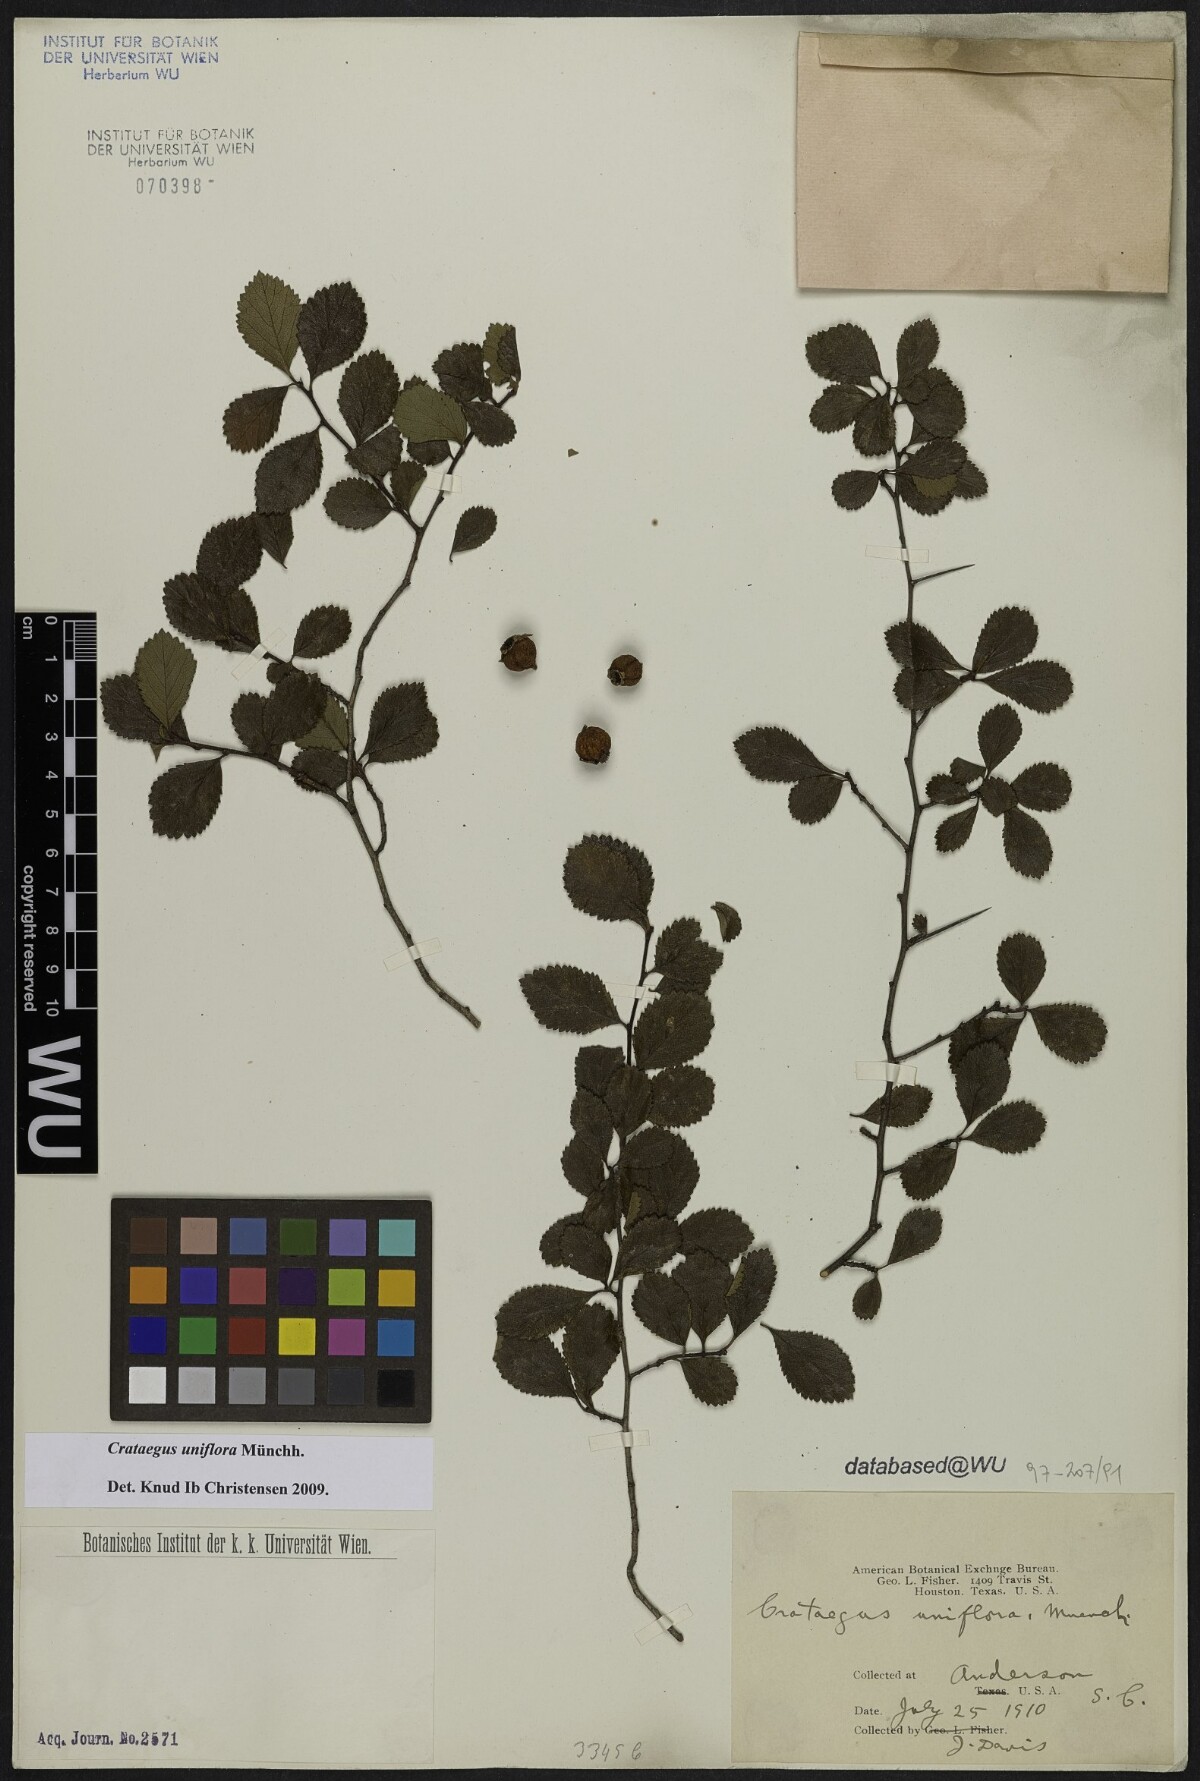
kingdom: Plantae
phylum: Tracheophyta
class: Magnoliopsida
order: Rosales
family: Rosaceae
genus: Crataegus
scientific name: Crataegus uniflora
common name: One-flower hawthorn
